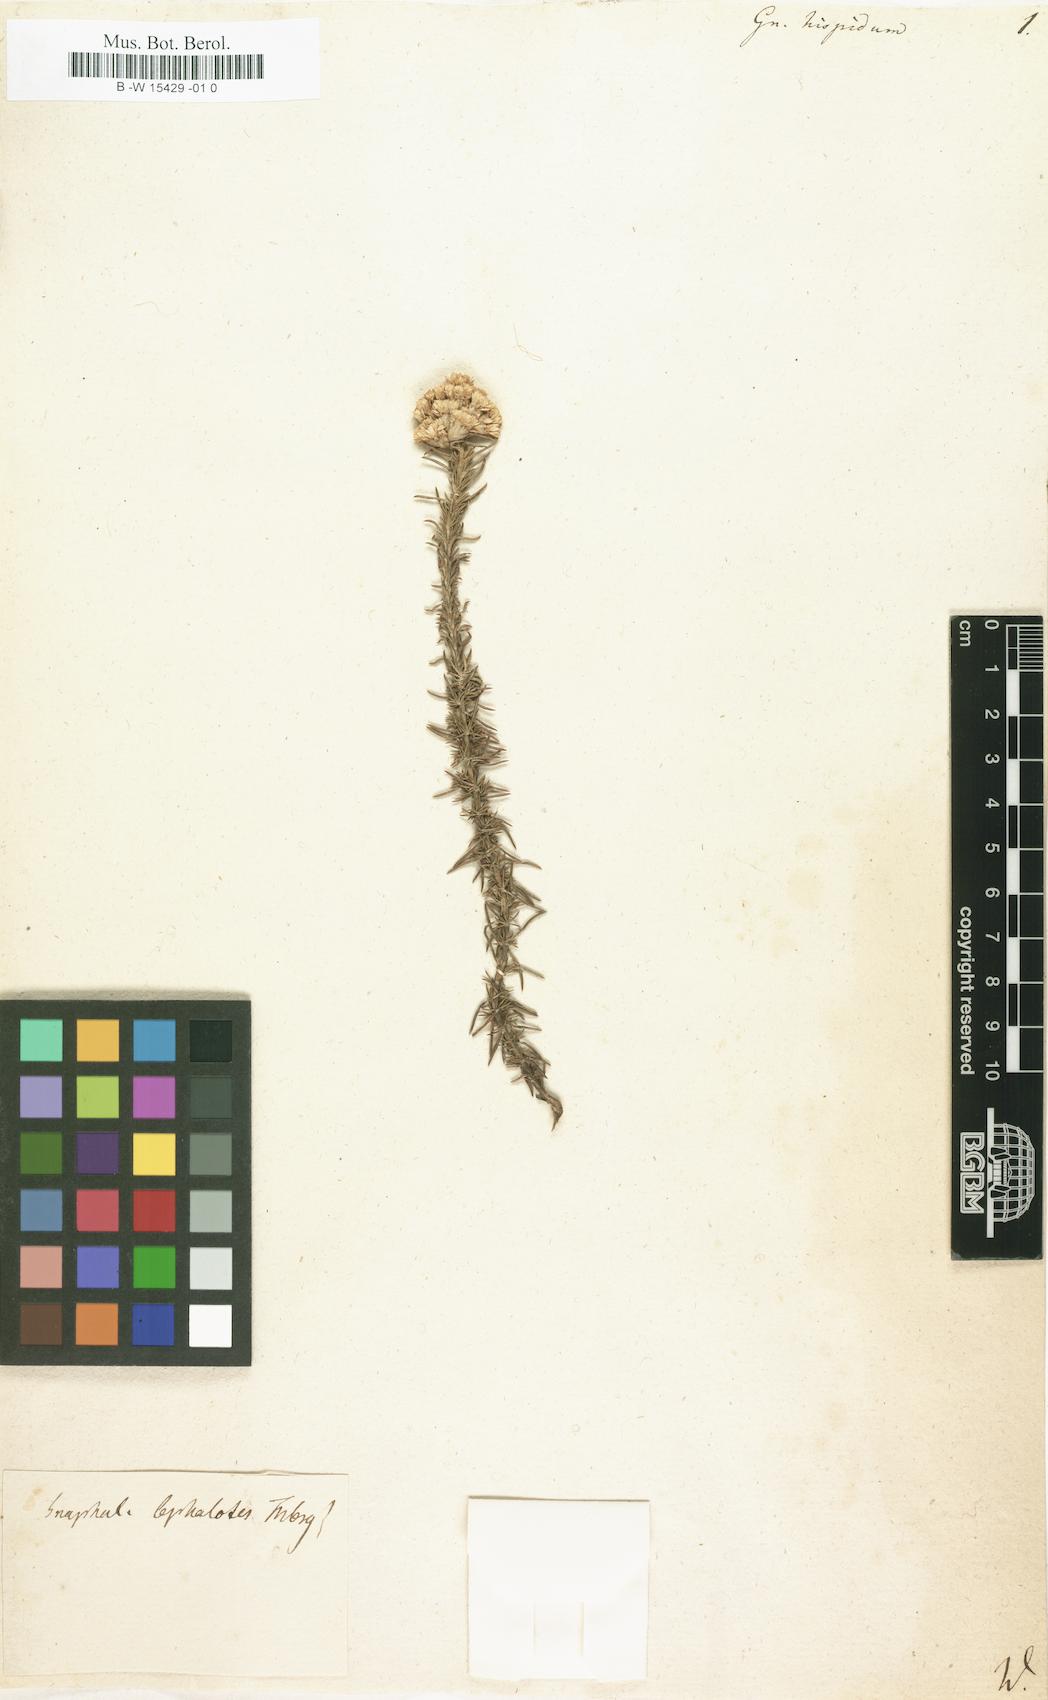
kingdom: Plantae
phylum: Tracheophyta
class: Magnoliopsida
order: Asterales
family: Asteraceae
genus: Elytropappus
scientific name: Elytropappus hispidus
